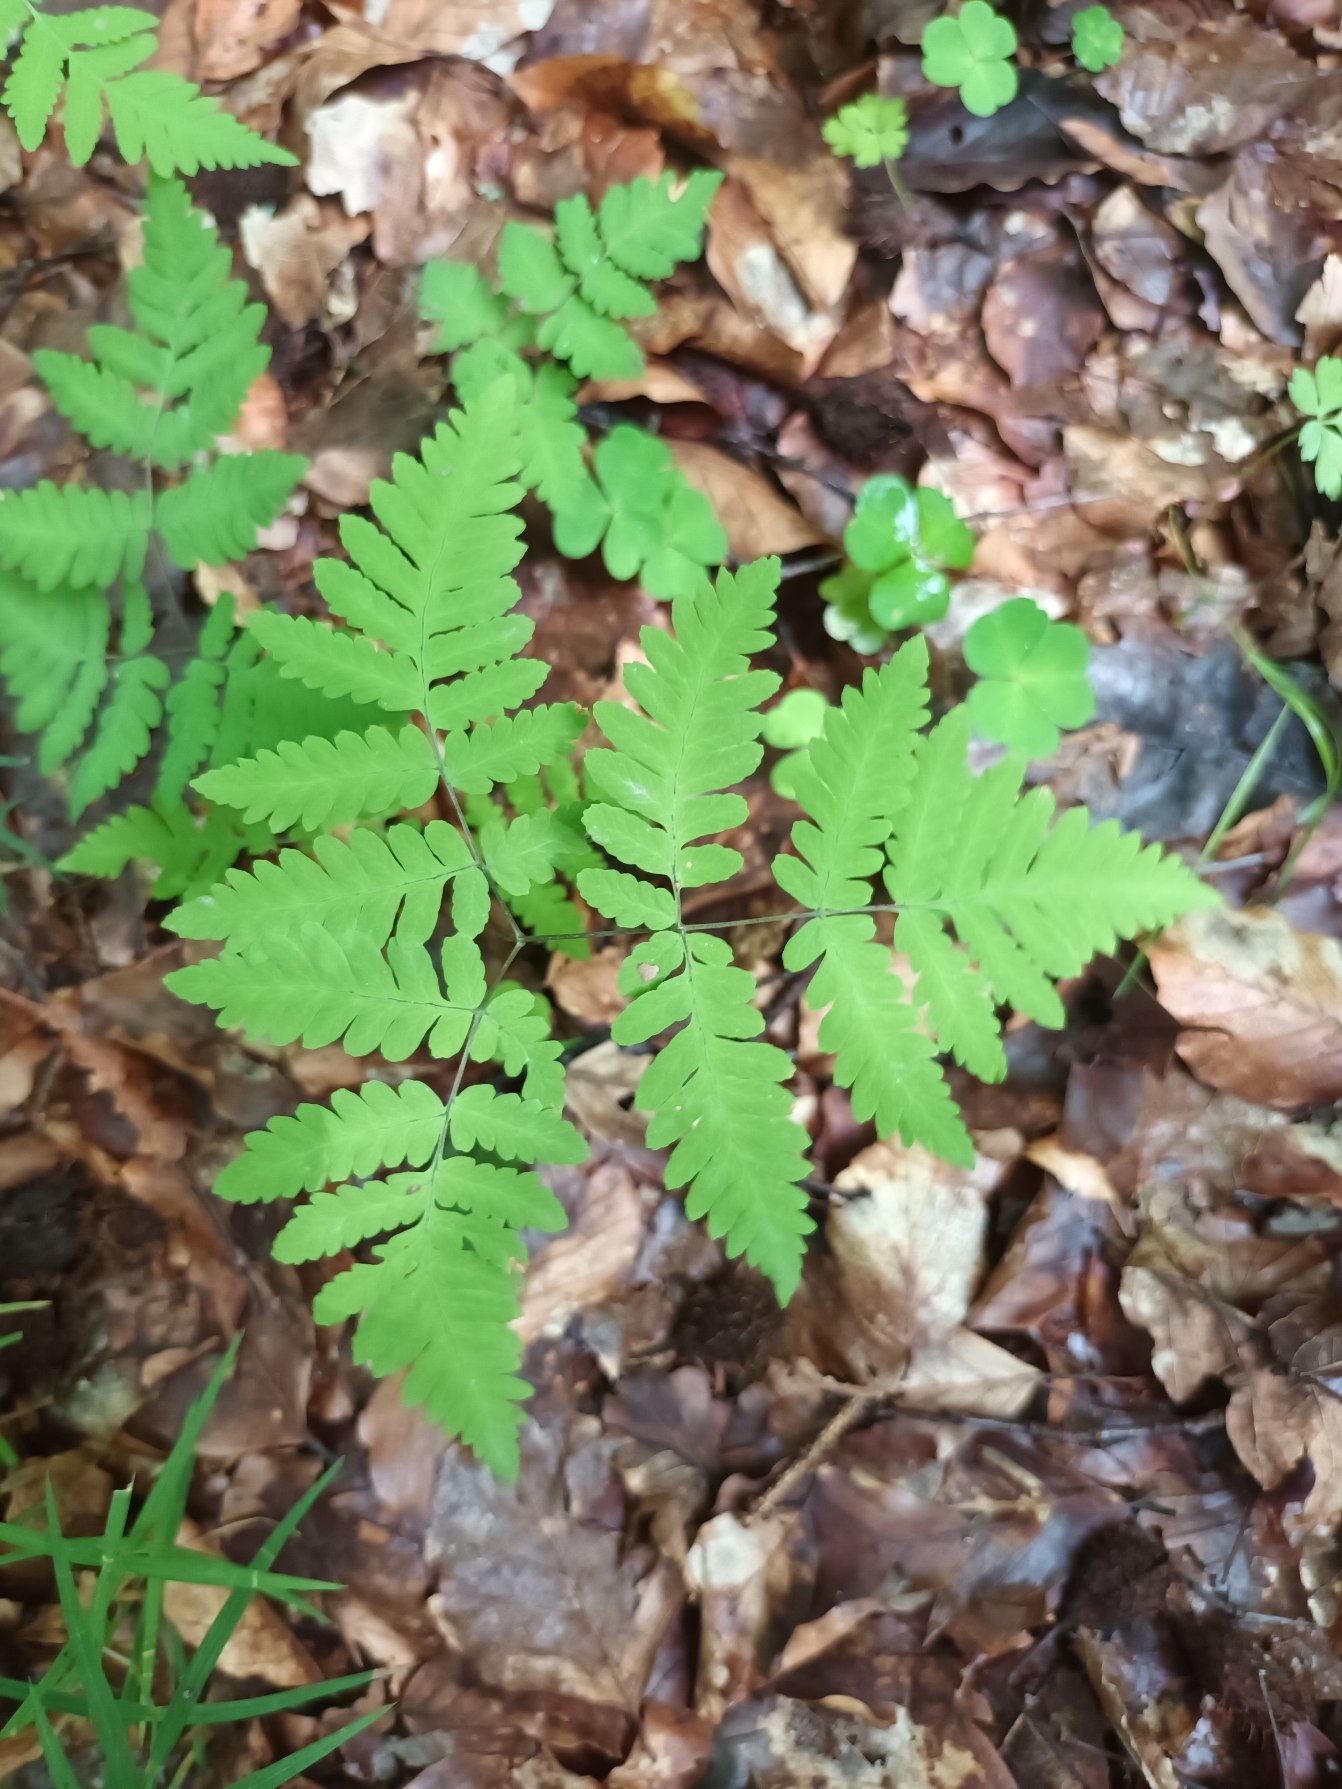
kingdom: Plantae
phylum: Tracheophyta
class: Polypodiopsida
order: Polypodiales
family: Cystopteridaceae
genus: Gymnocarpium
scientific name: Gymnocarpium dryopteris
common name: Tredelt egebregne
